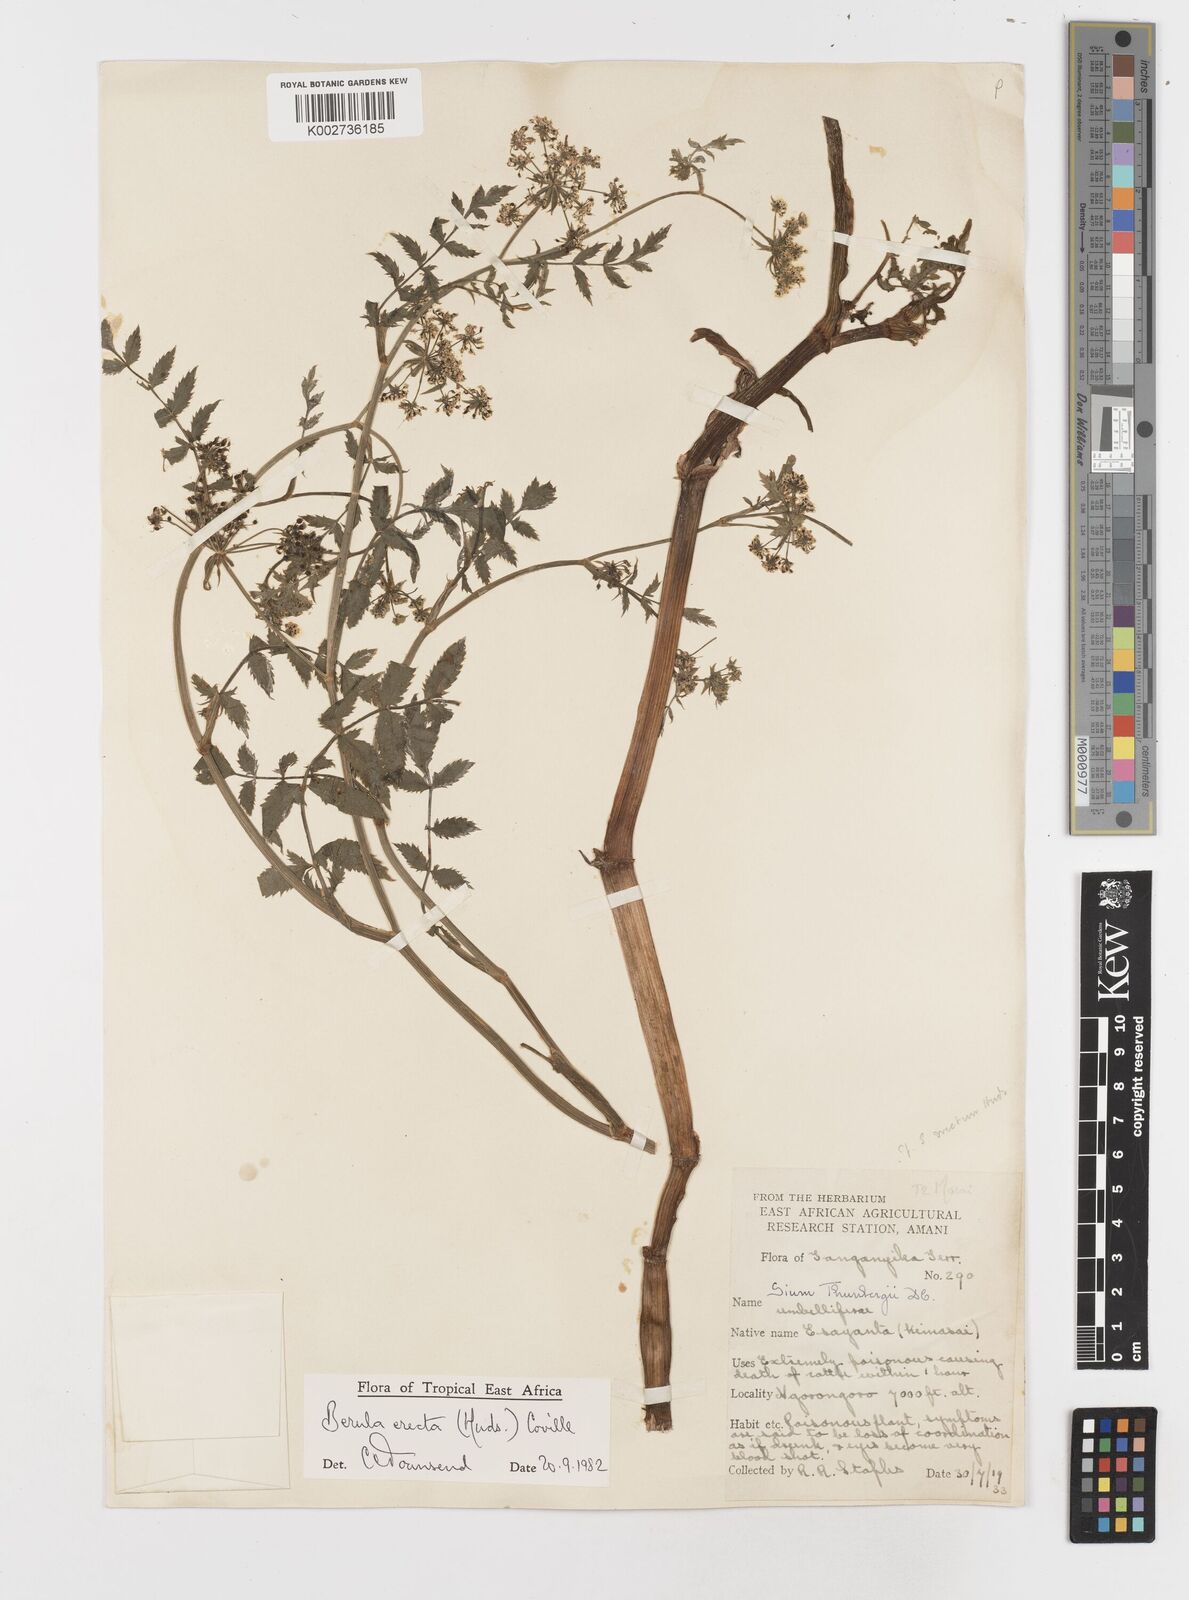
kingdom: Plantae
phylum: Tracheophyta
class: Magnoliopsida
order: Apiales
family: Apiaceae
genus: Berula
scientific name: Berula erecta
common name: Lesser water-parsnip
